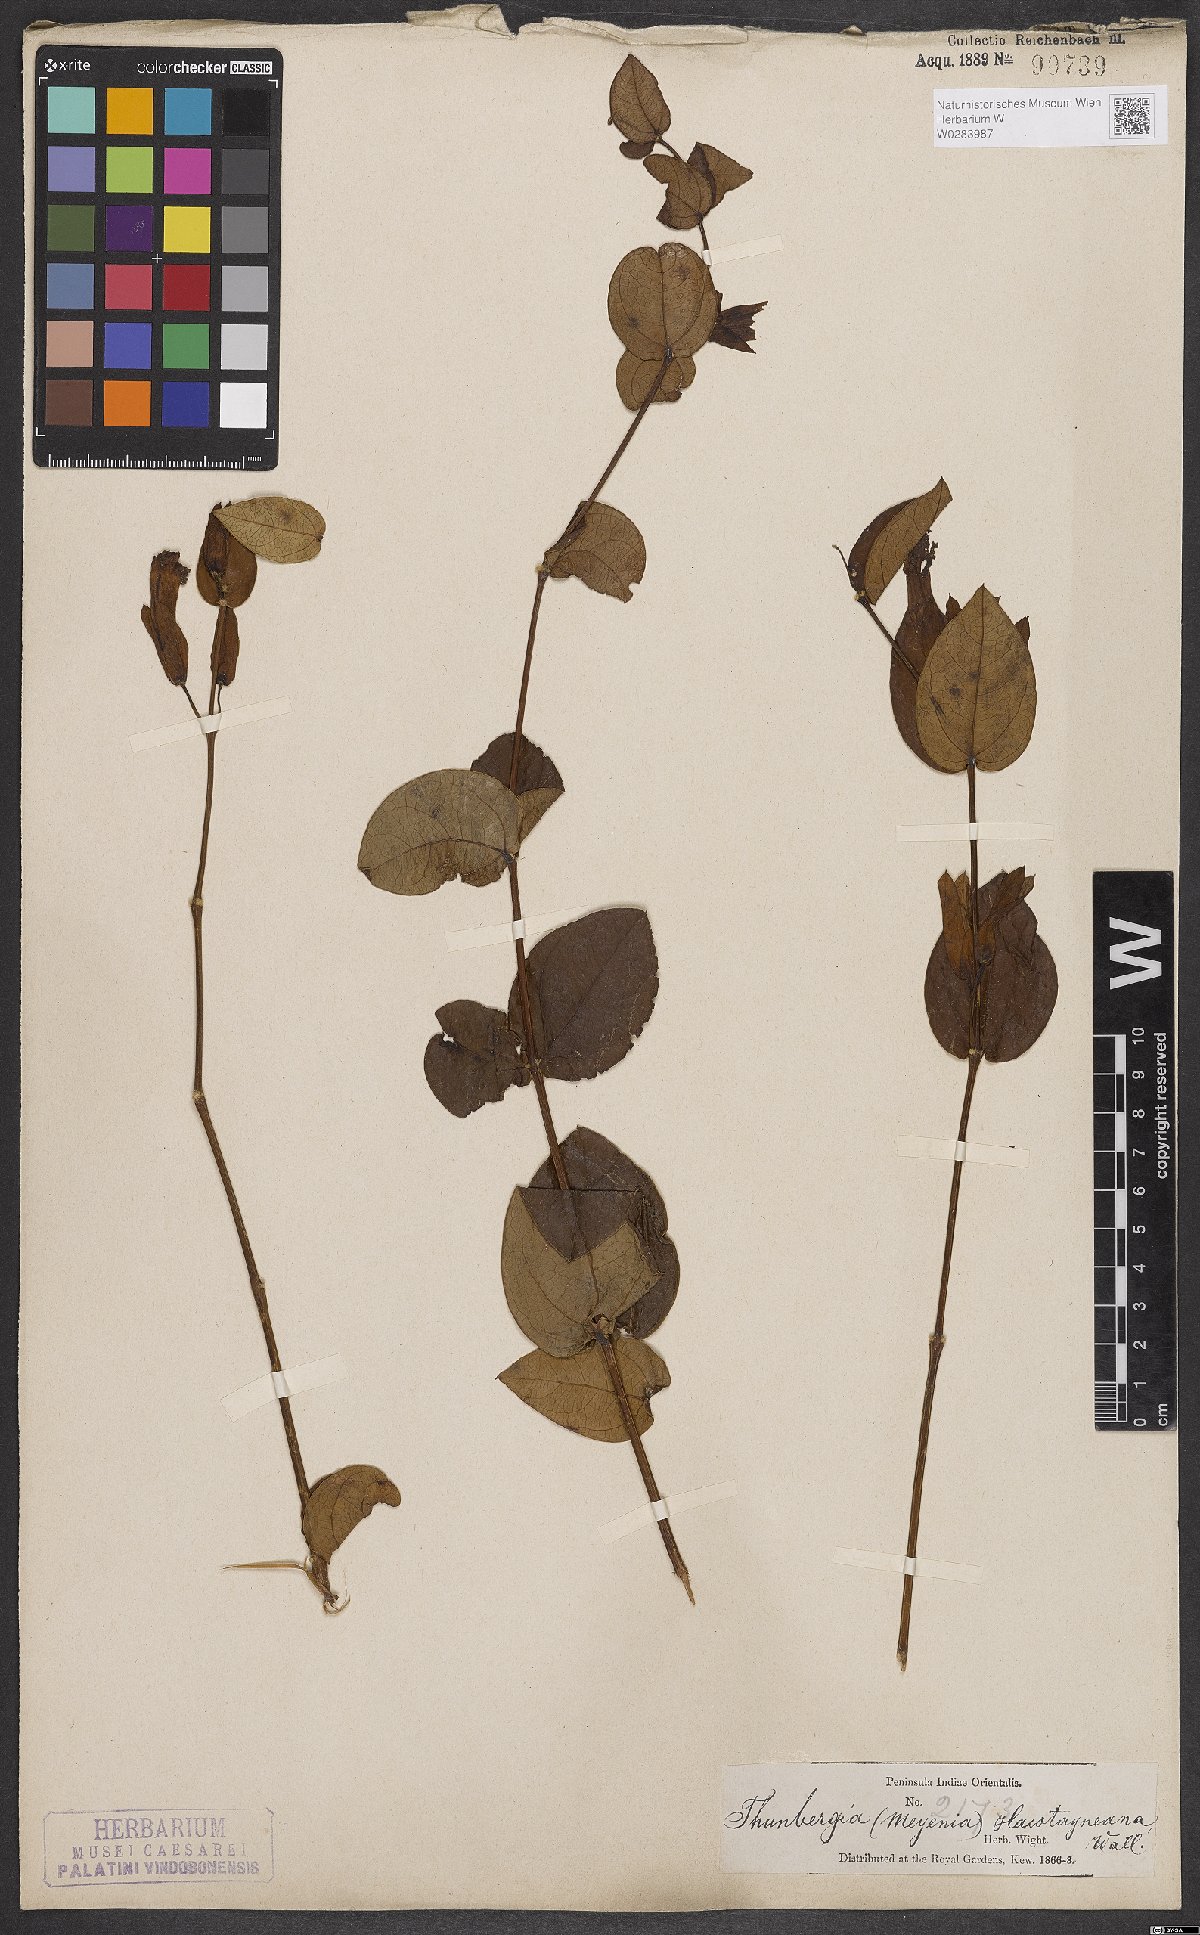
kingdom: Plantae
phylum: Tracheophyta
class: Magnoliopsida
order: Lamiales
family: Acanthaceae
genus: Meyenia
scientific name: Meyenia hawtayneana
